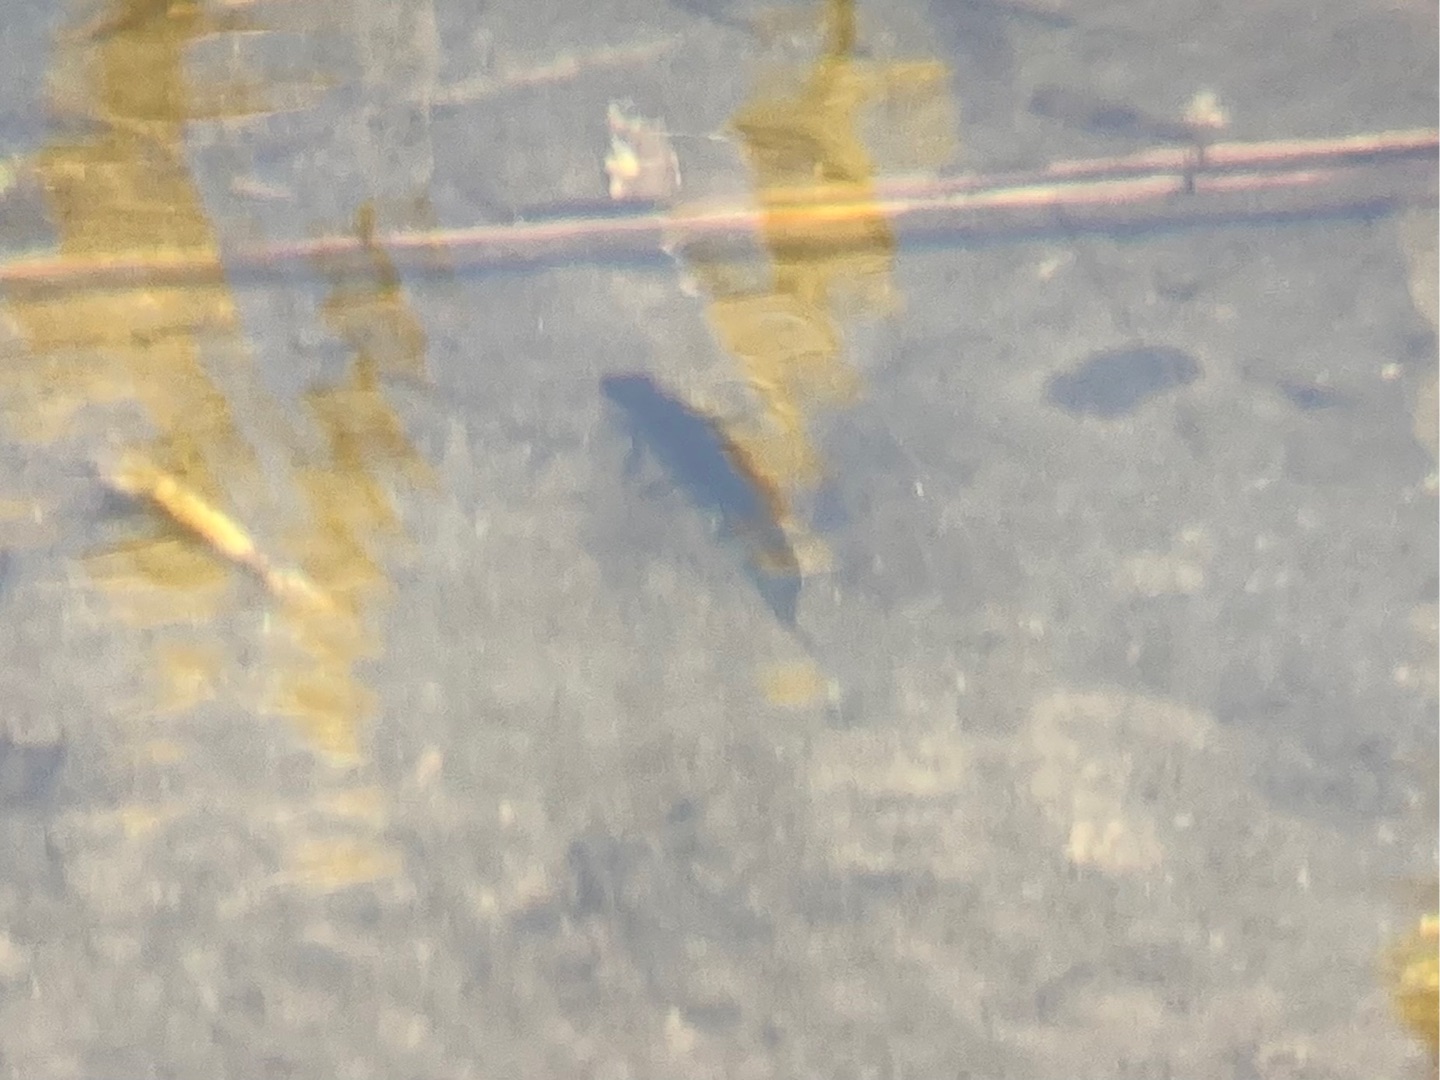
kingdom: Animalia
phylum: Chordata
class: Amphibia
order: Caudata
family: Salamandridae
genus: Lissotriton
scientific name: Lissotriton vulgaris
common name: Lille vandsalamander
